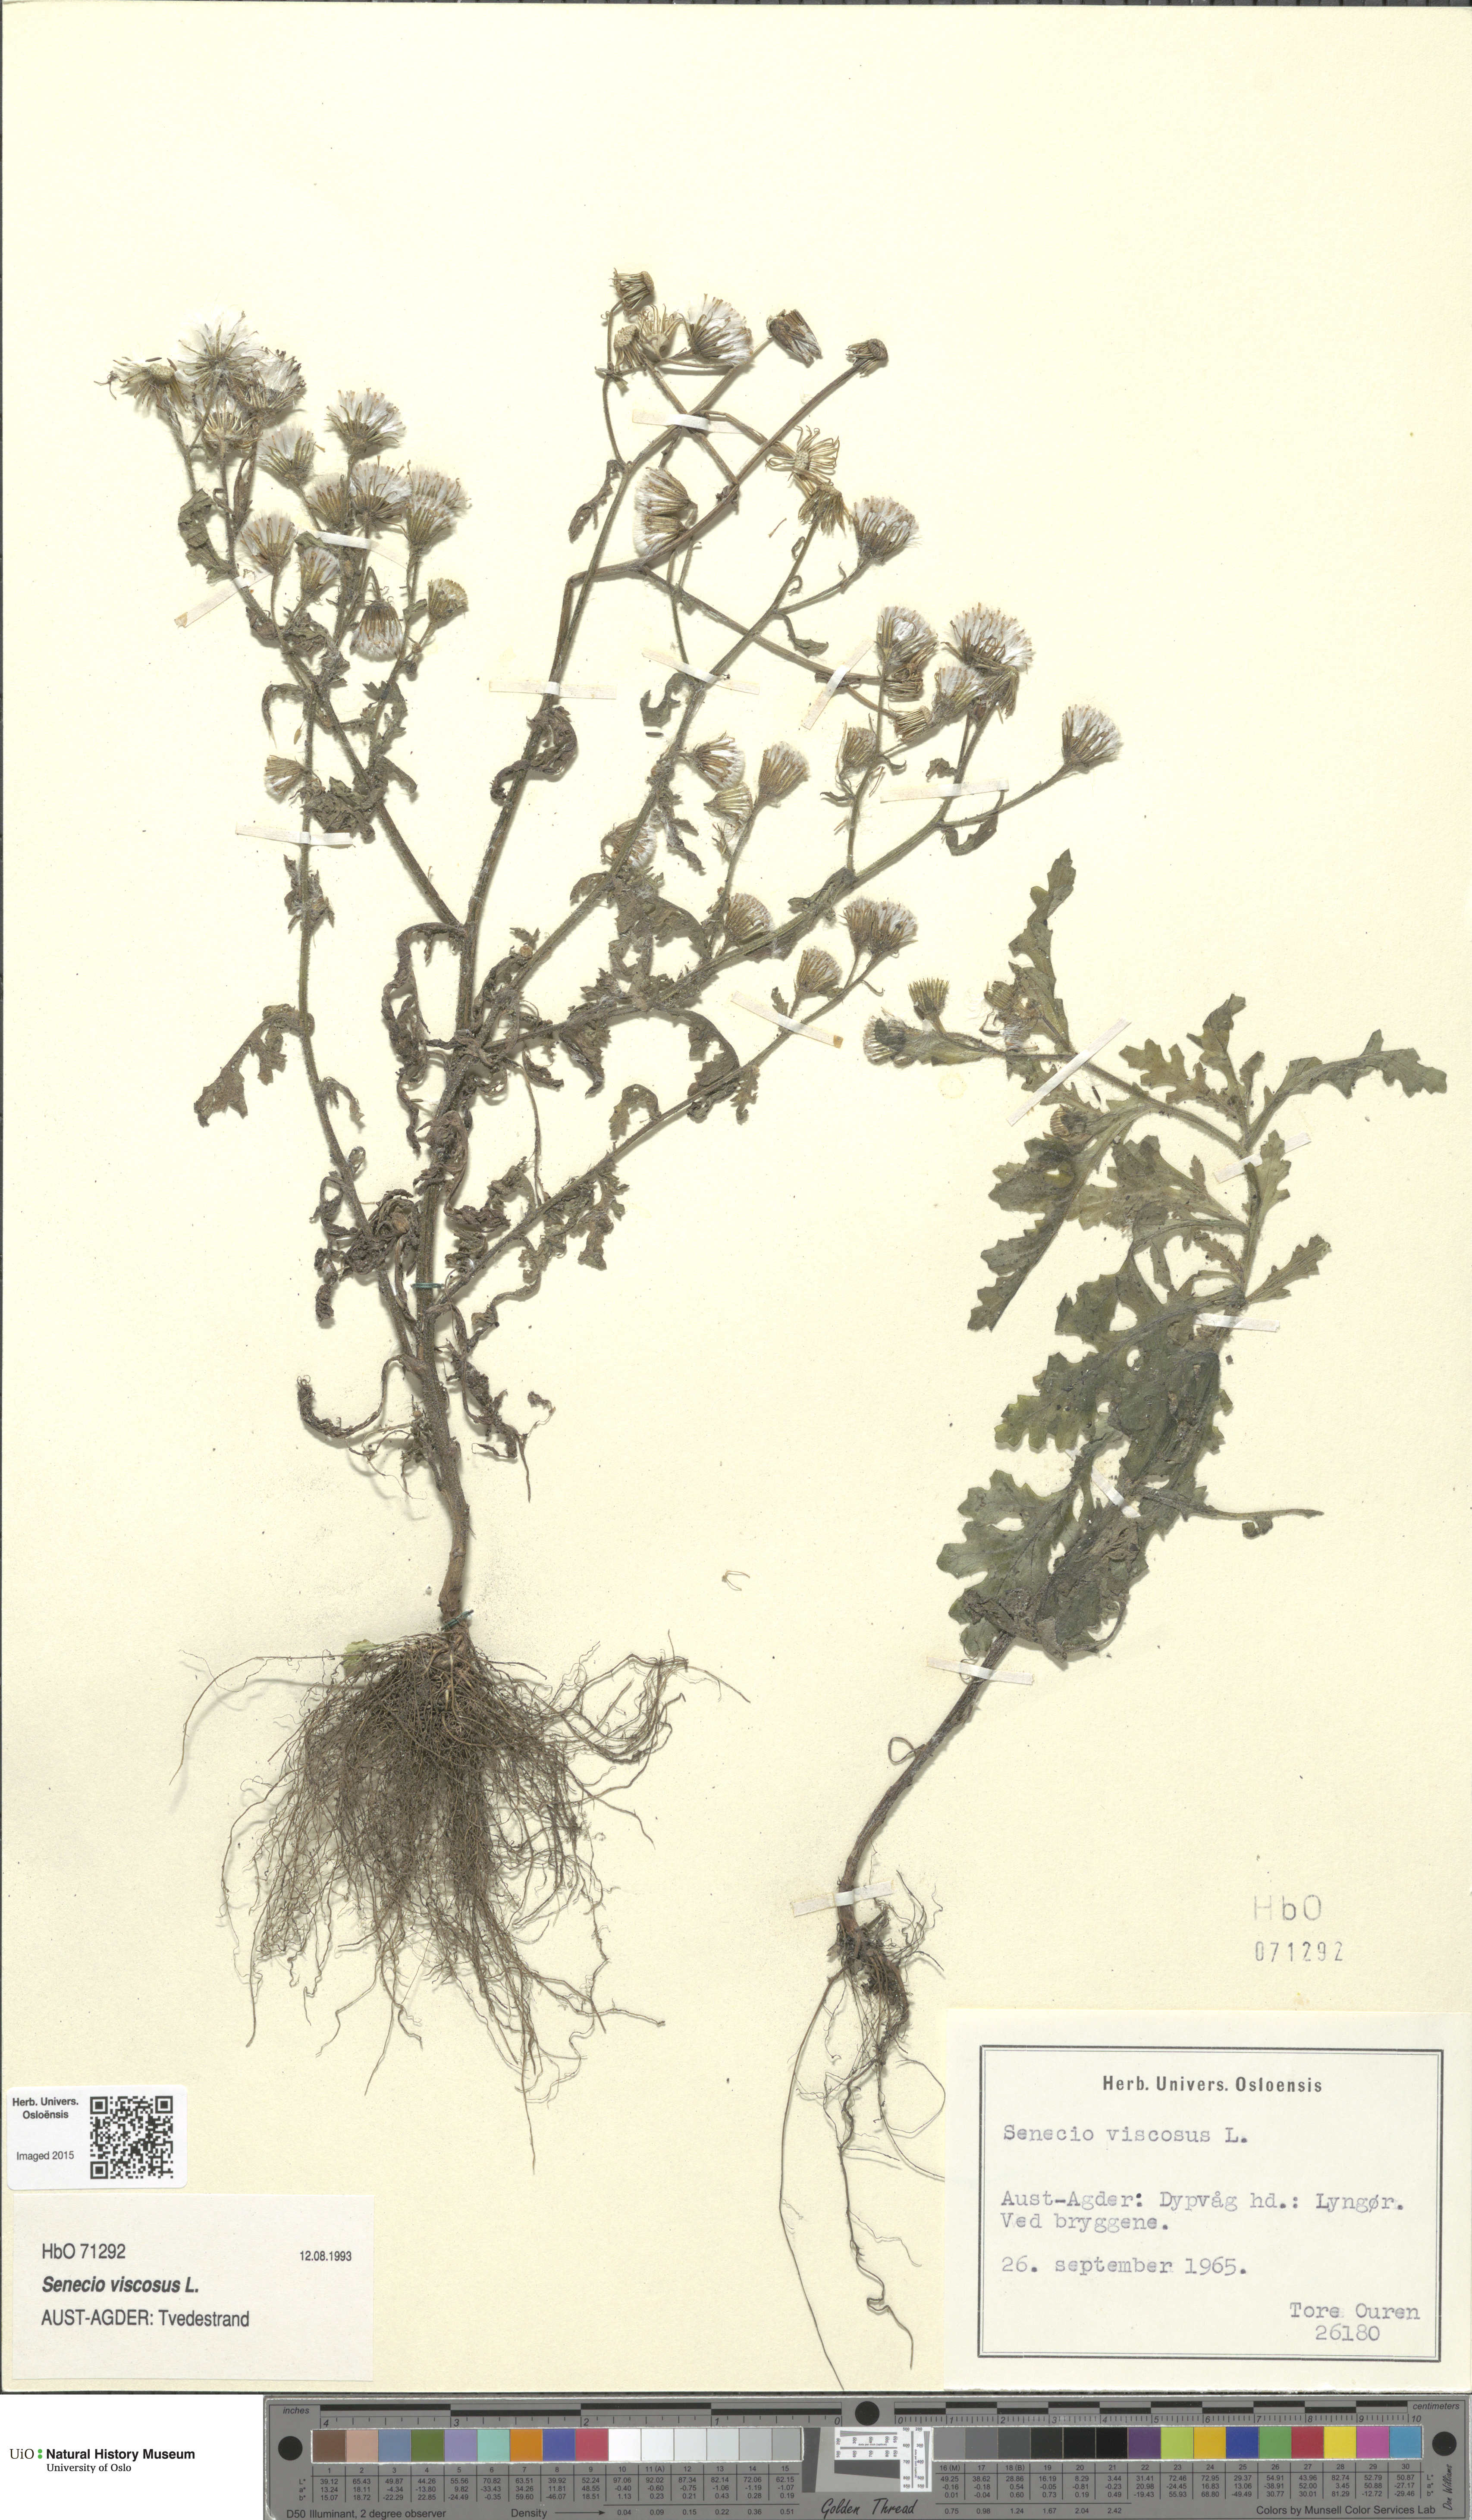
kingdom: Plantae
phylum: Tracheophyta
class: Magnoliopsida
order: Asterales
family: Asteraceae
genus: Senecio
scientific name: Senecio viscosus
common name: Sticky groundsel
